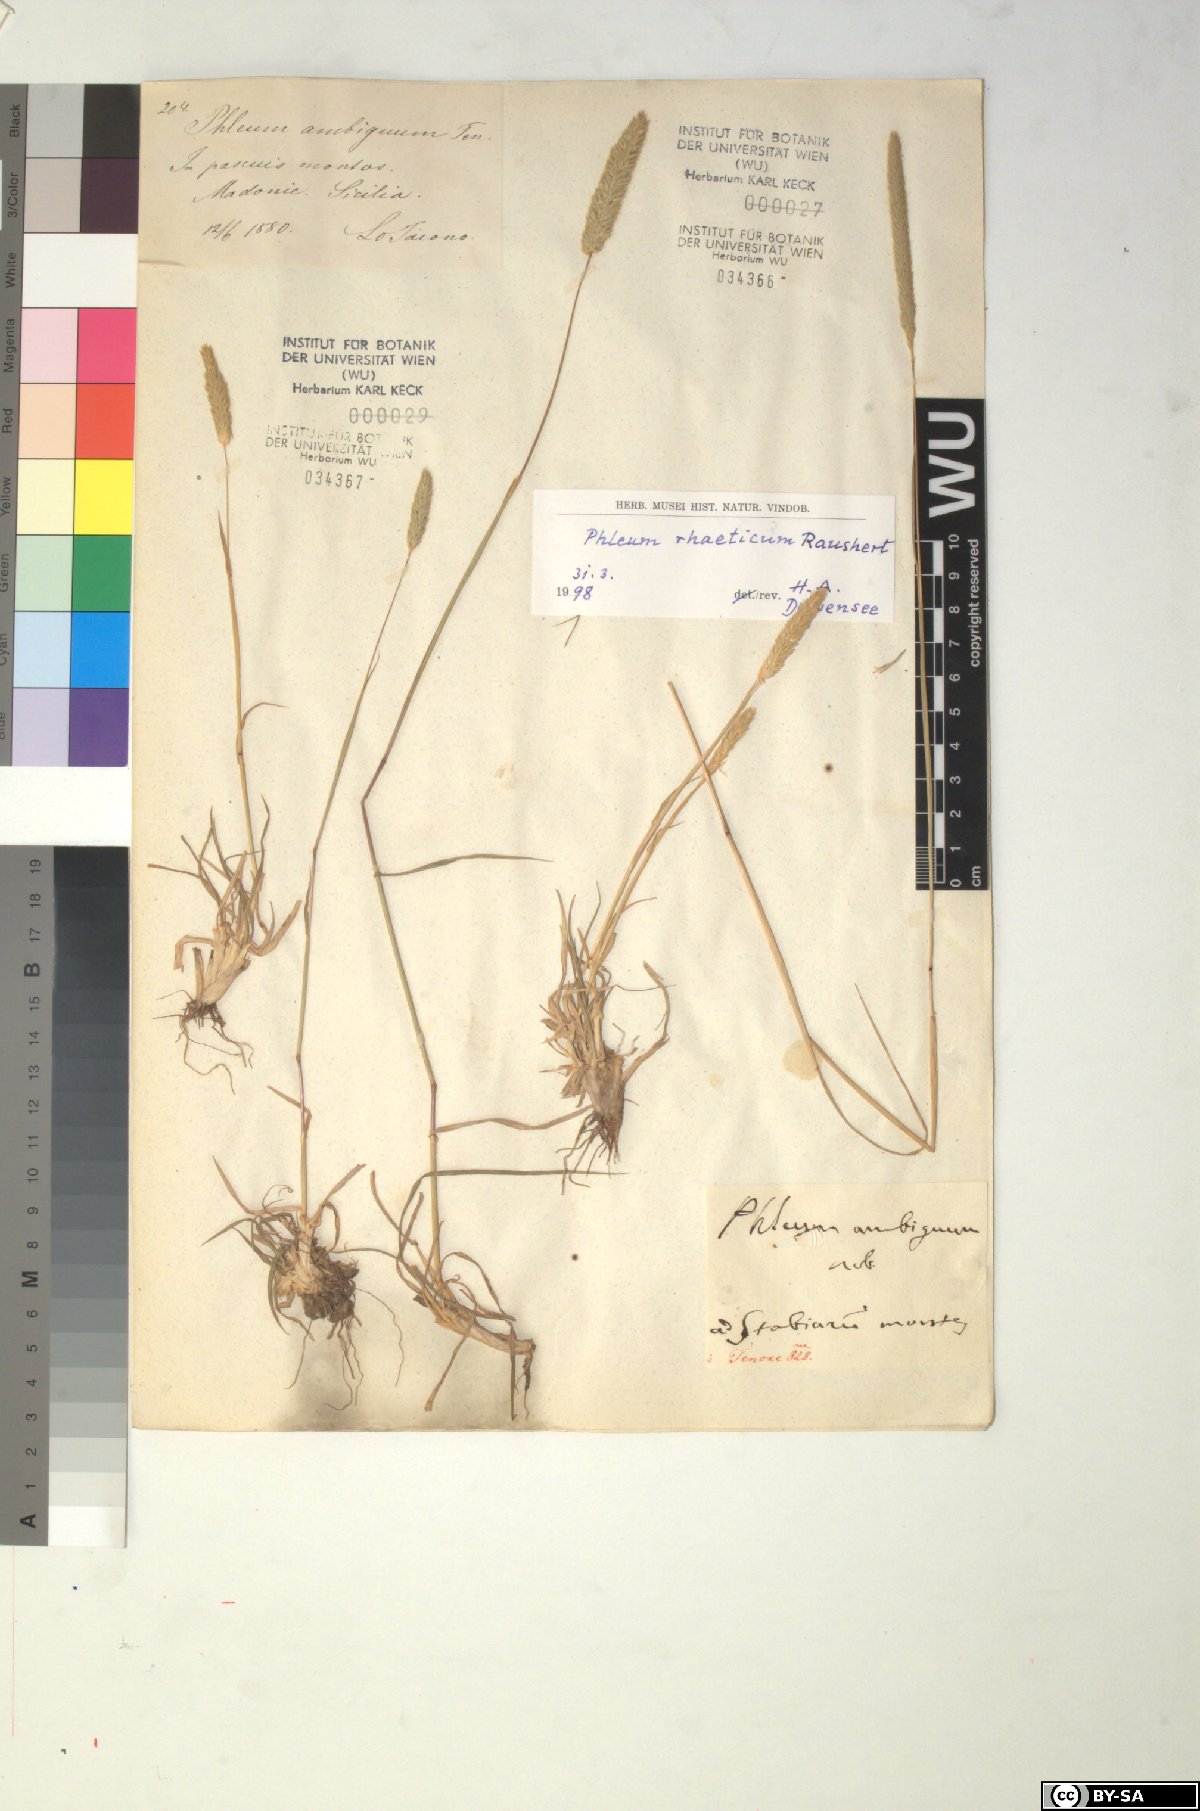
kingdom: Plantae
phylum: Tracheophyta
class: Liliopsida
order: Poales
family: Poaceae
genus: Phleum
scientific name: Phleum alpinum
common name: Alpine cat's-tail
